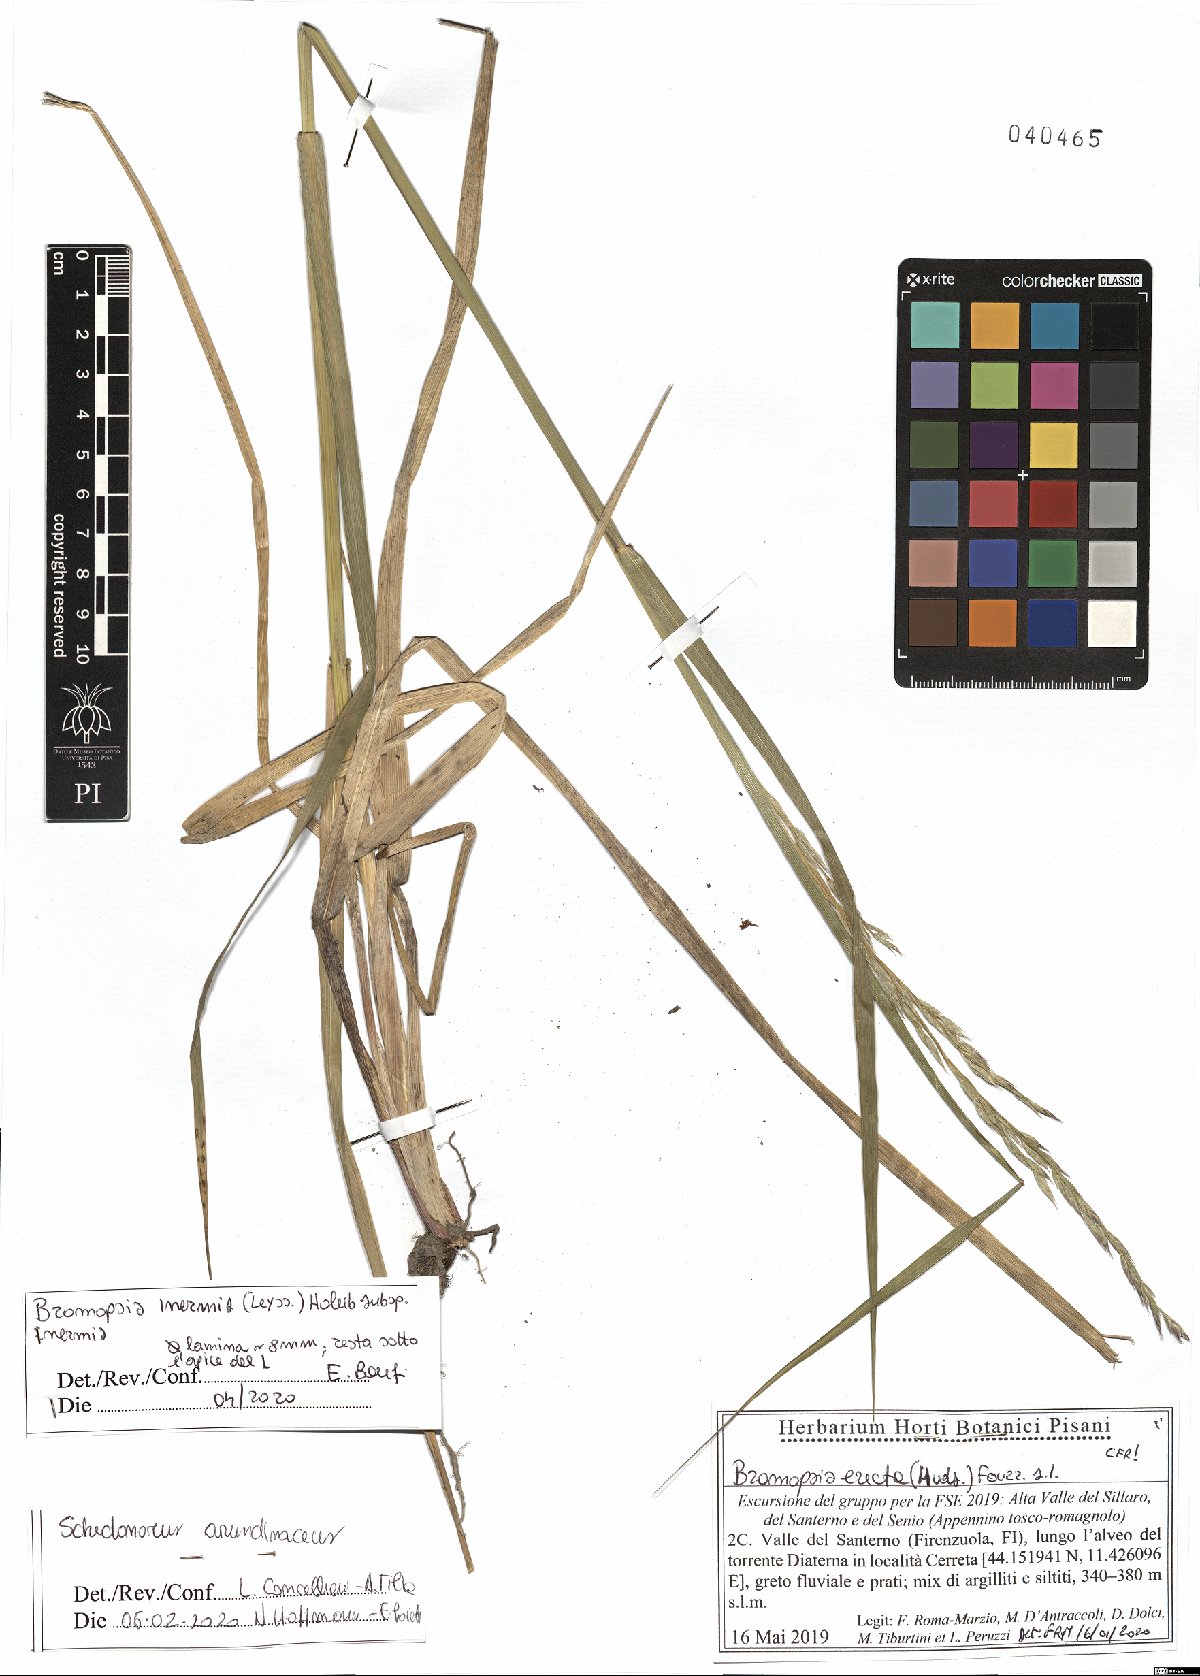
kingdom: Plantae
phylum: Tracheophyta
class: Liliopsida
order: Poales
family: Poaceae
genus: Bromus
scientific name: Bromus inermis
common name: Smooth brome
